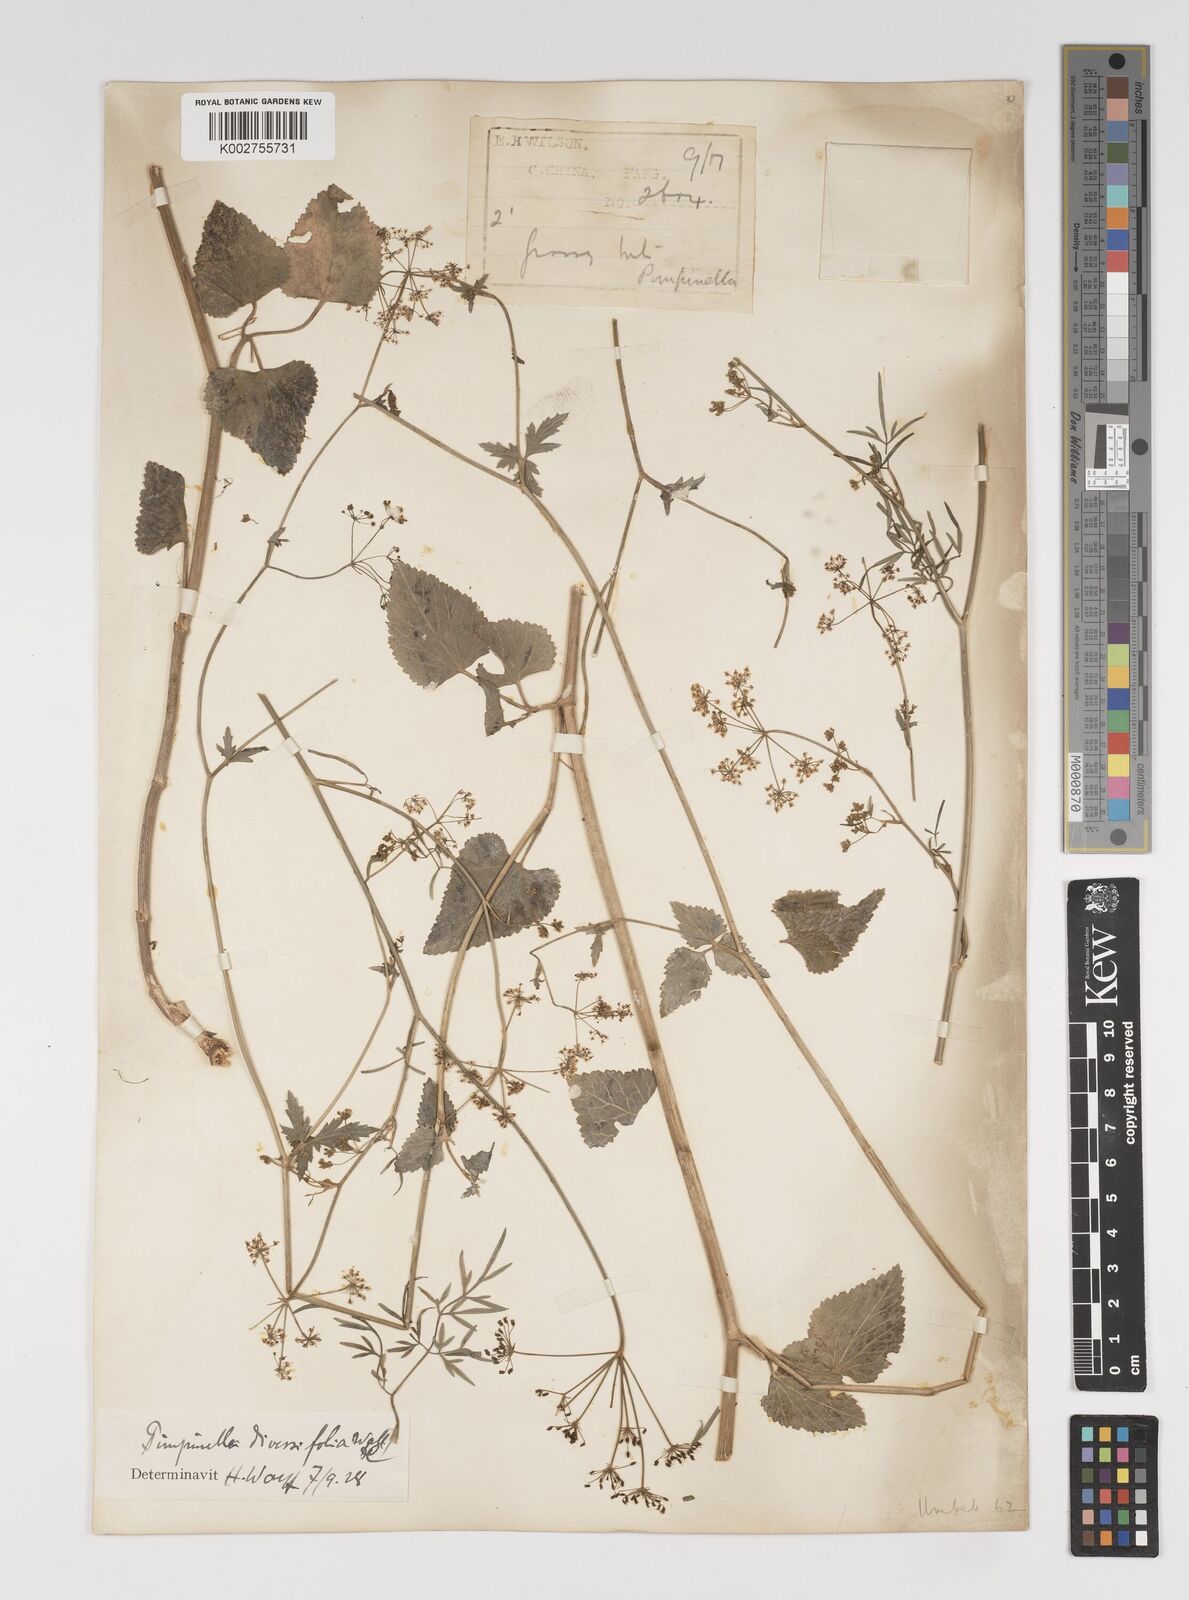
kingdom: Plantae
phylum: Tracheophyta
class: Magnoliopsida
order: Apiales
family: Apiaceae
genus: Pimpinella
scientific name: Pimpinella diversifolia
